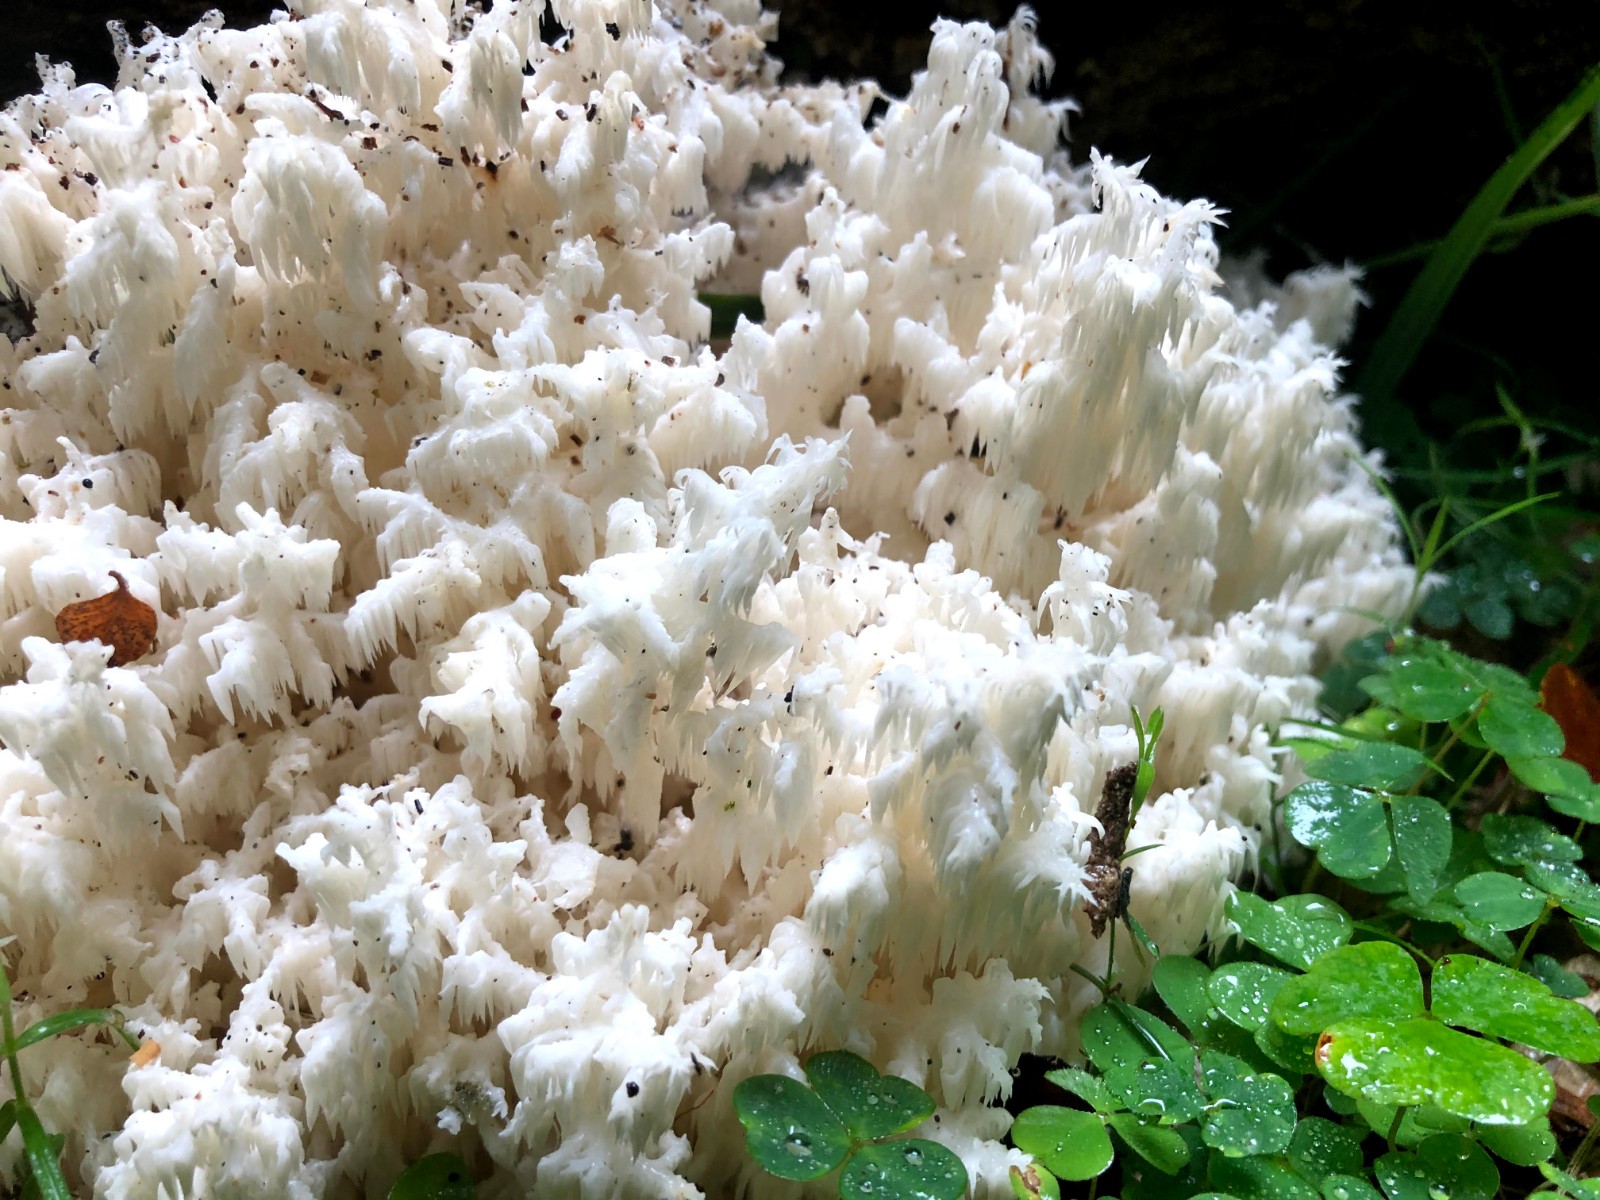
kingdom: Fungi
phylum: Basidiomycota
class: Agaricomycetes
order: Russulales
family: Hericiaceae
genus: Hericium
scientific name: Hericium coralloides
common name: koralpigsvamp
